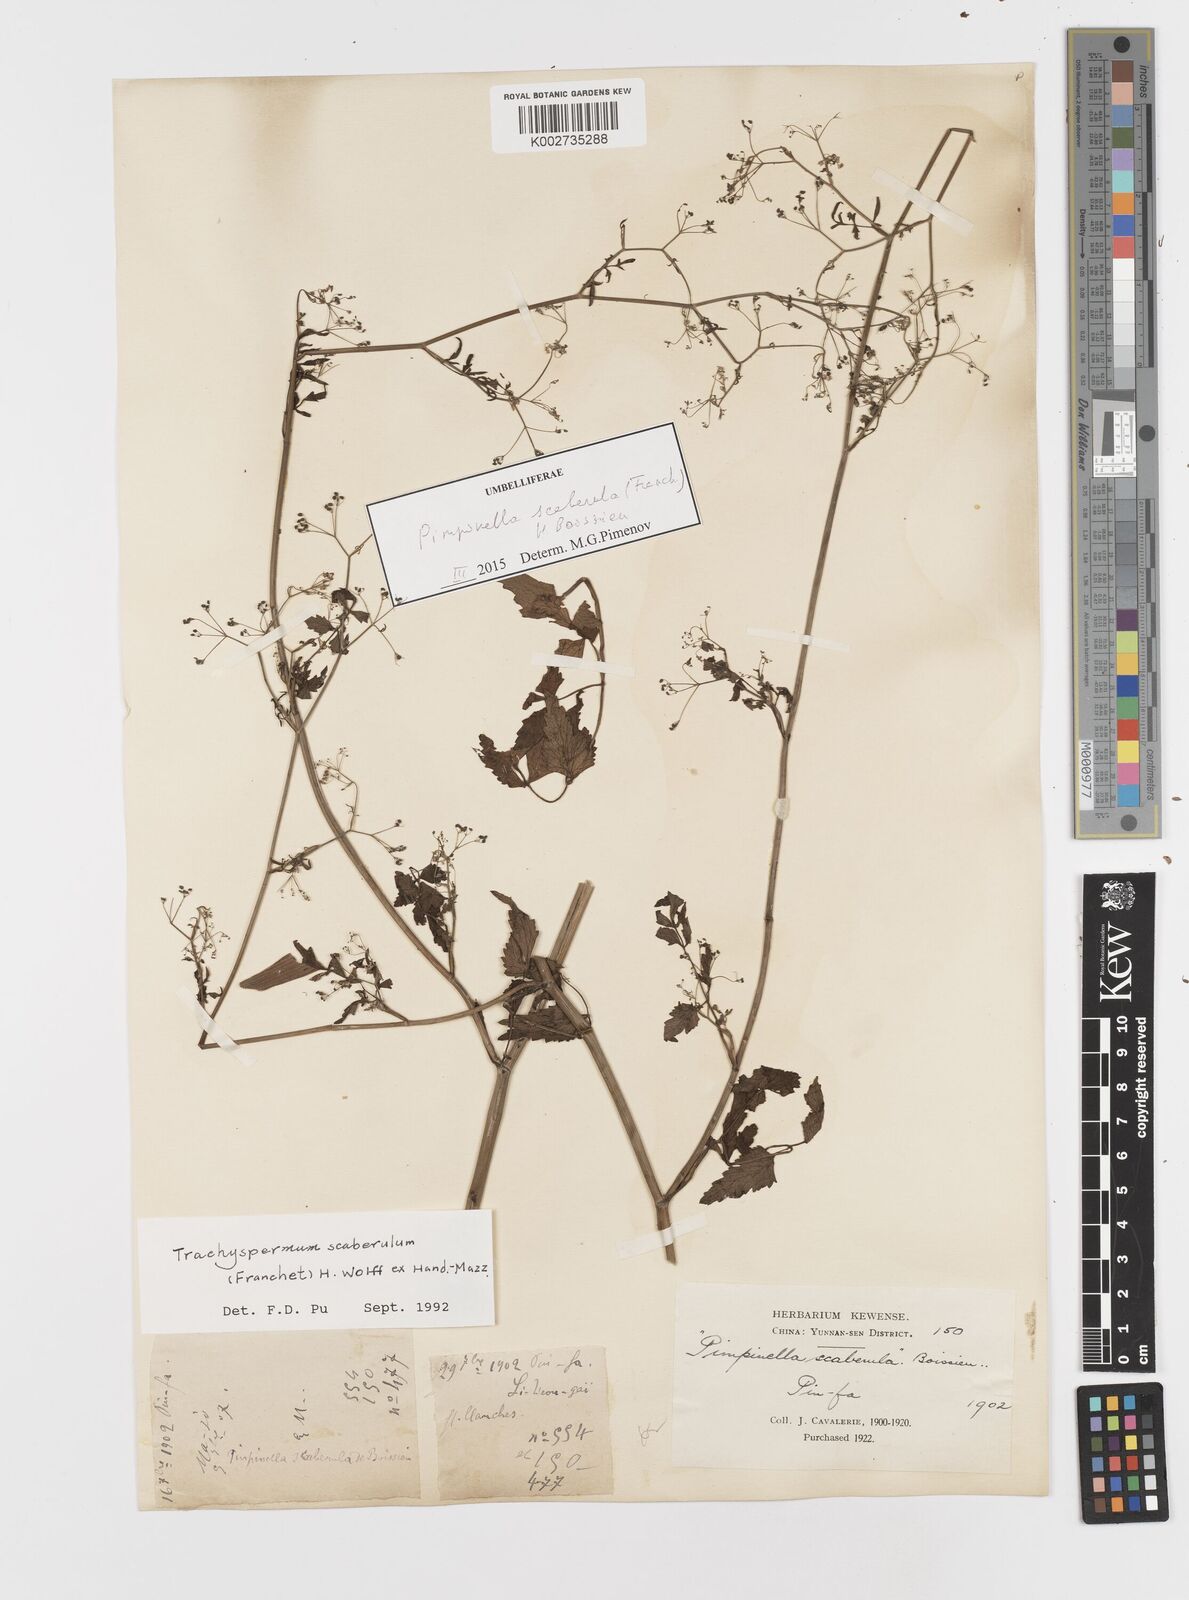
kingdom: Plantae
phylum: Tracheophyta
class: Magnoliopsida
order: Apiales
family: Apiaceae
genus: Pimpinella
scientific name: Pimpinella scaberula
